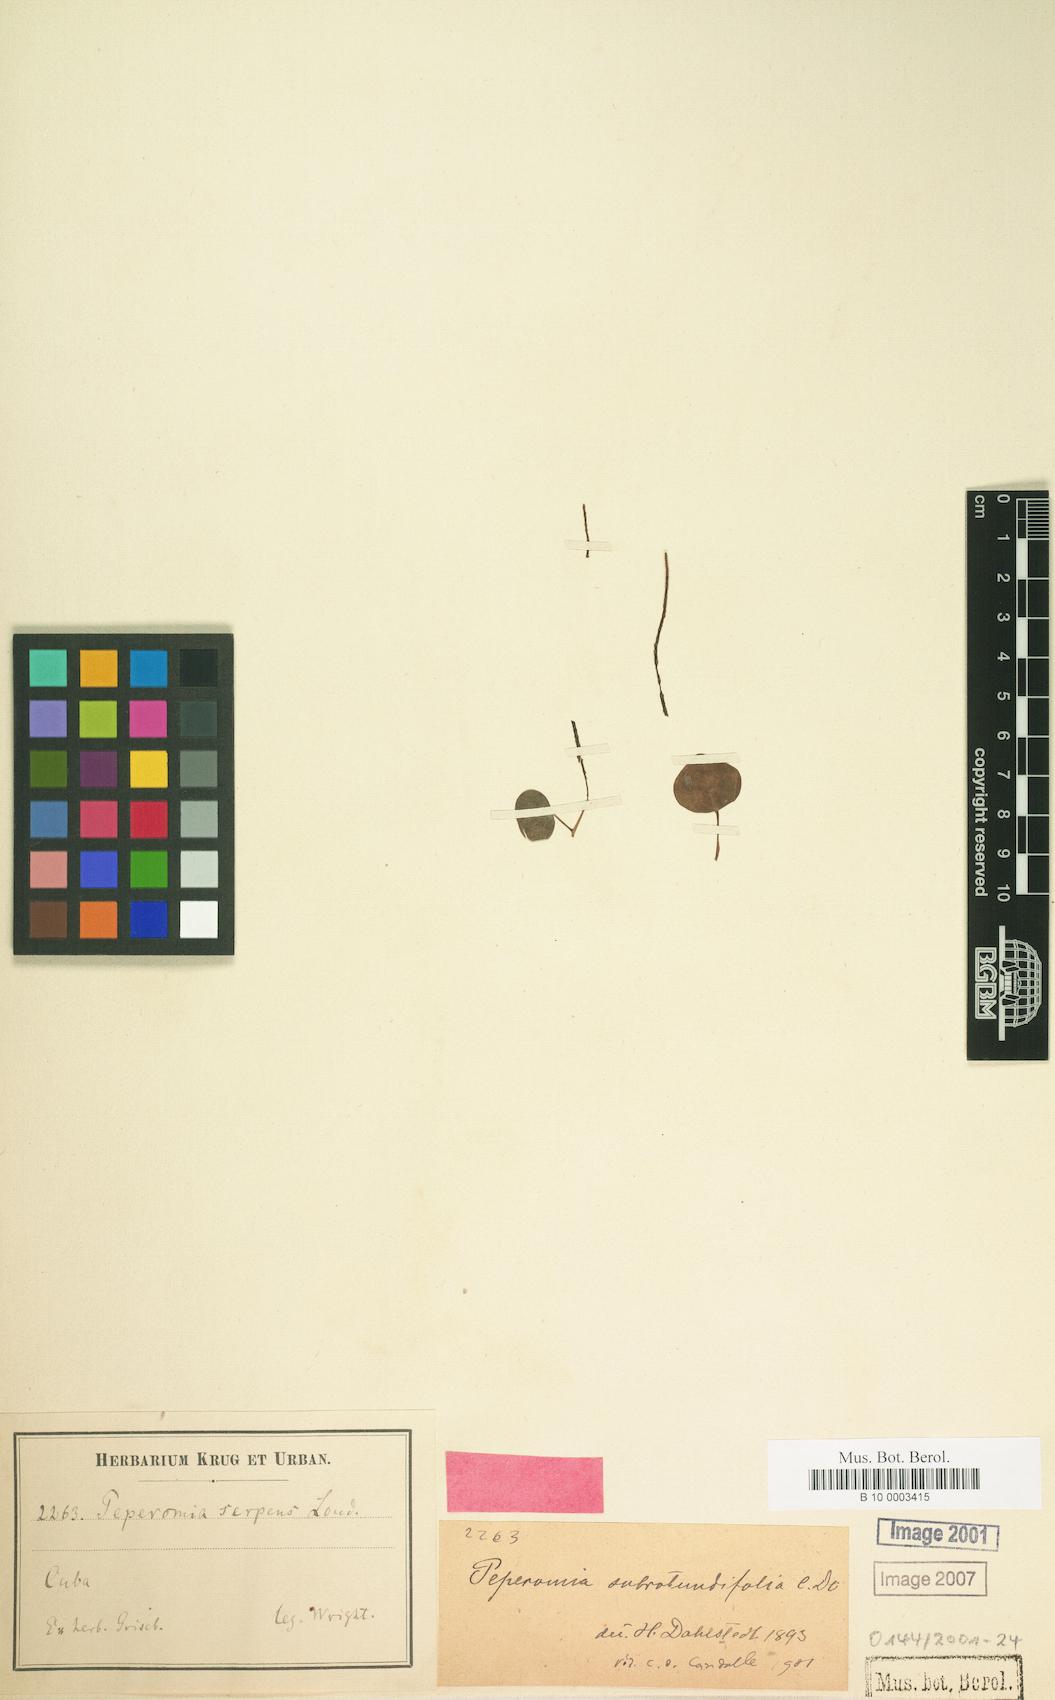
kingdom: Plantae
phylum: Tracheophyta
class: Magnoliopsida
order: Piperales
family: Piperaceae
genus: Peperomia
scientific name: Peperomia subrotundifolia
